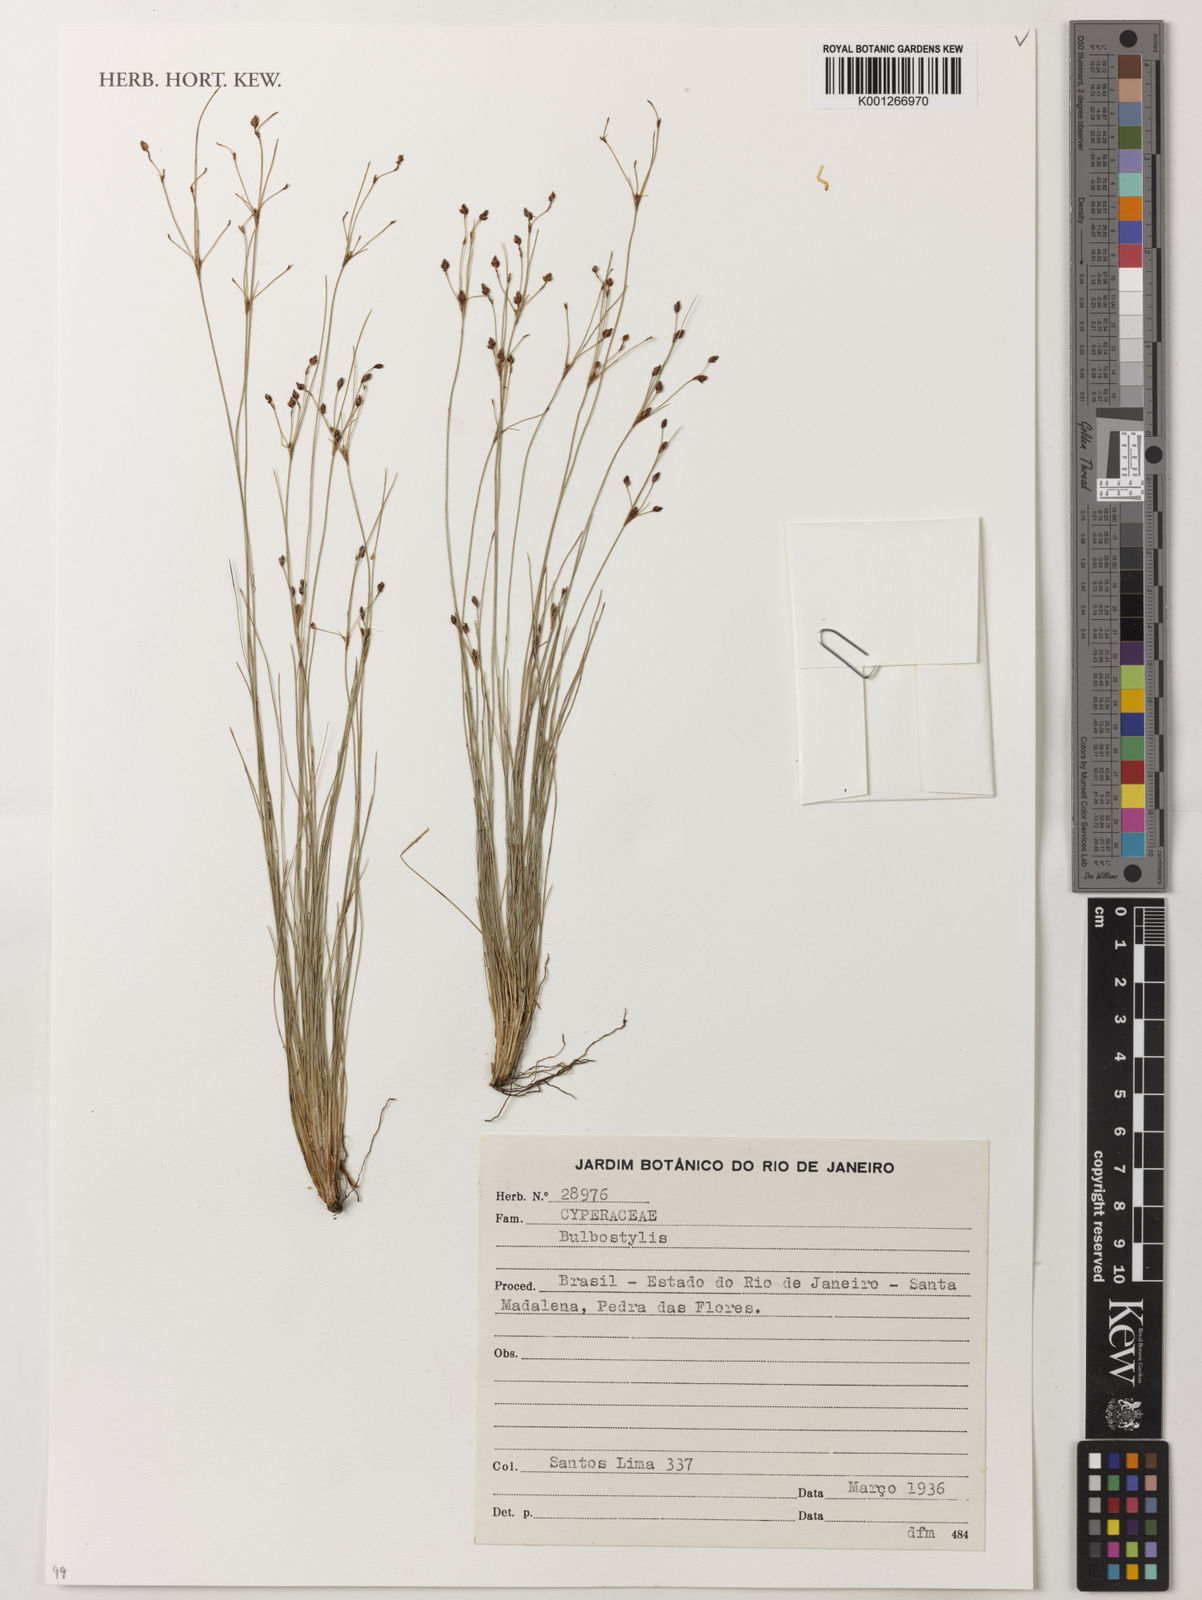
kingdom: Plantae
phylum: Tracheophyta
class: Liliopsida
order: Poales
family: Cyperaceae
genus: Bulbostylis
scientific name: Bulbostylis
